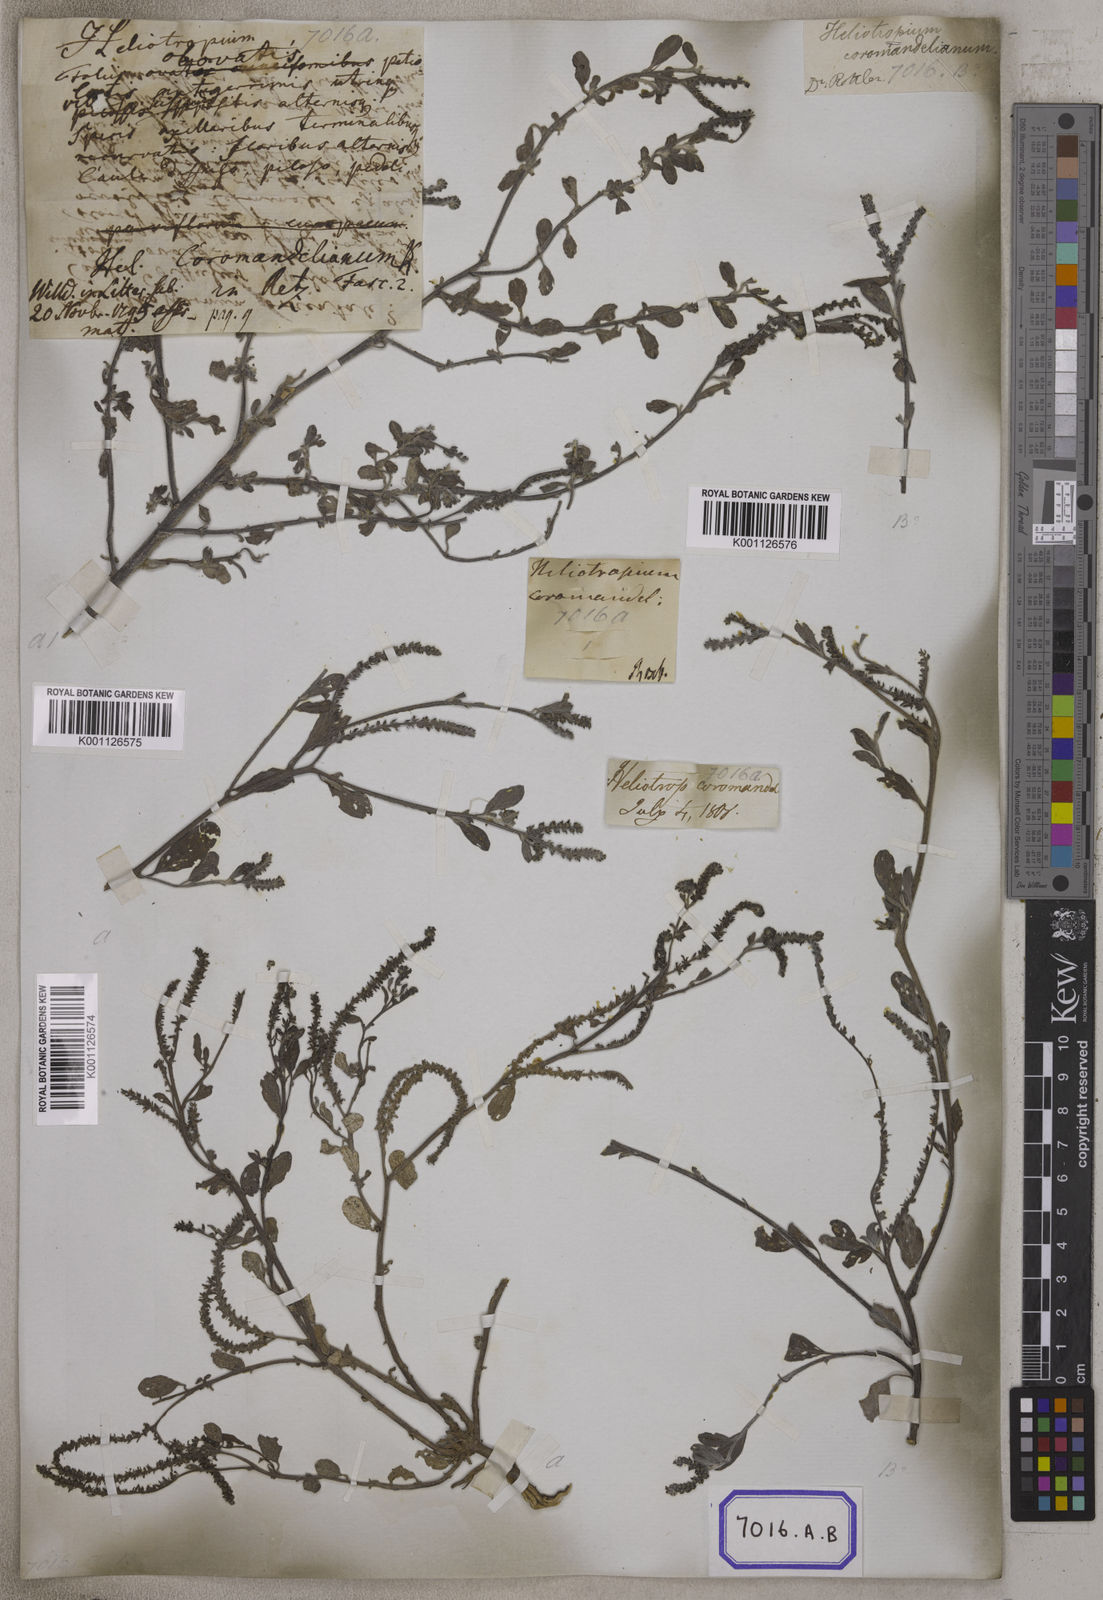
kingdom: Plantae
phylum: Tracheophyta
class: Magnoliopsida
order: Boraginales
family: Heliotropiaceae
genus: Euploca
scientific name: Euploca ovalifolia
